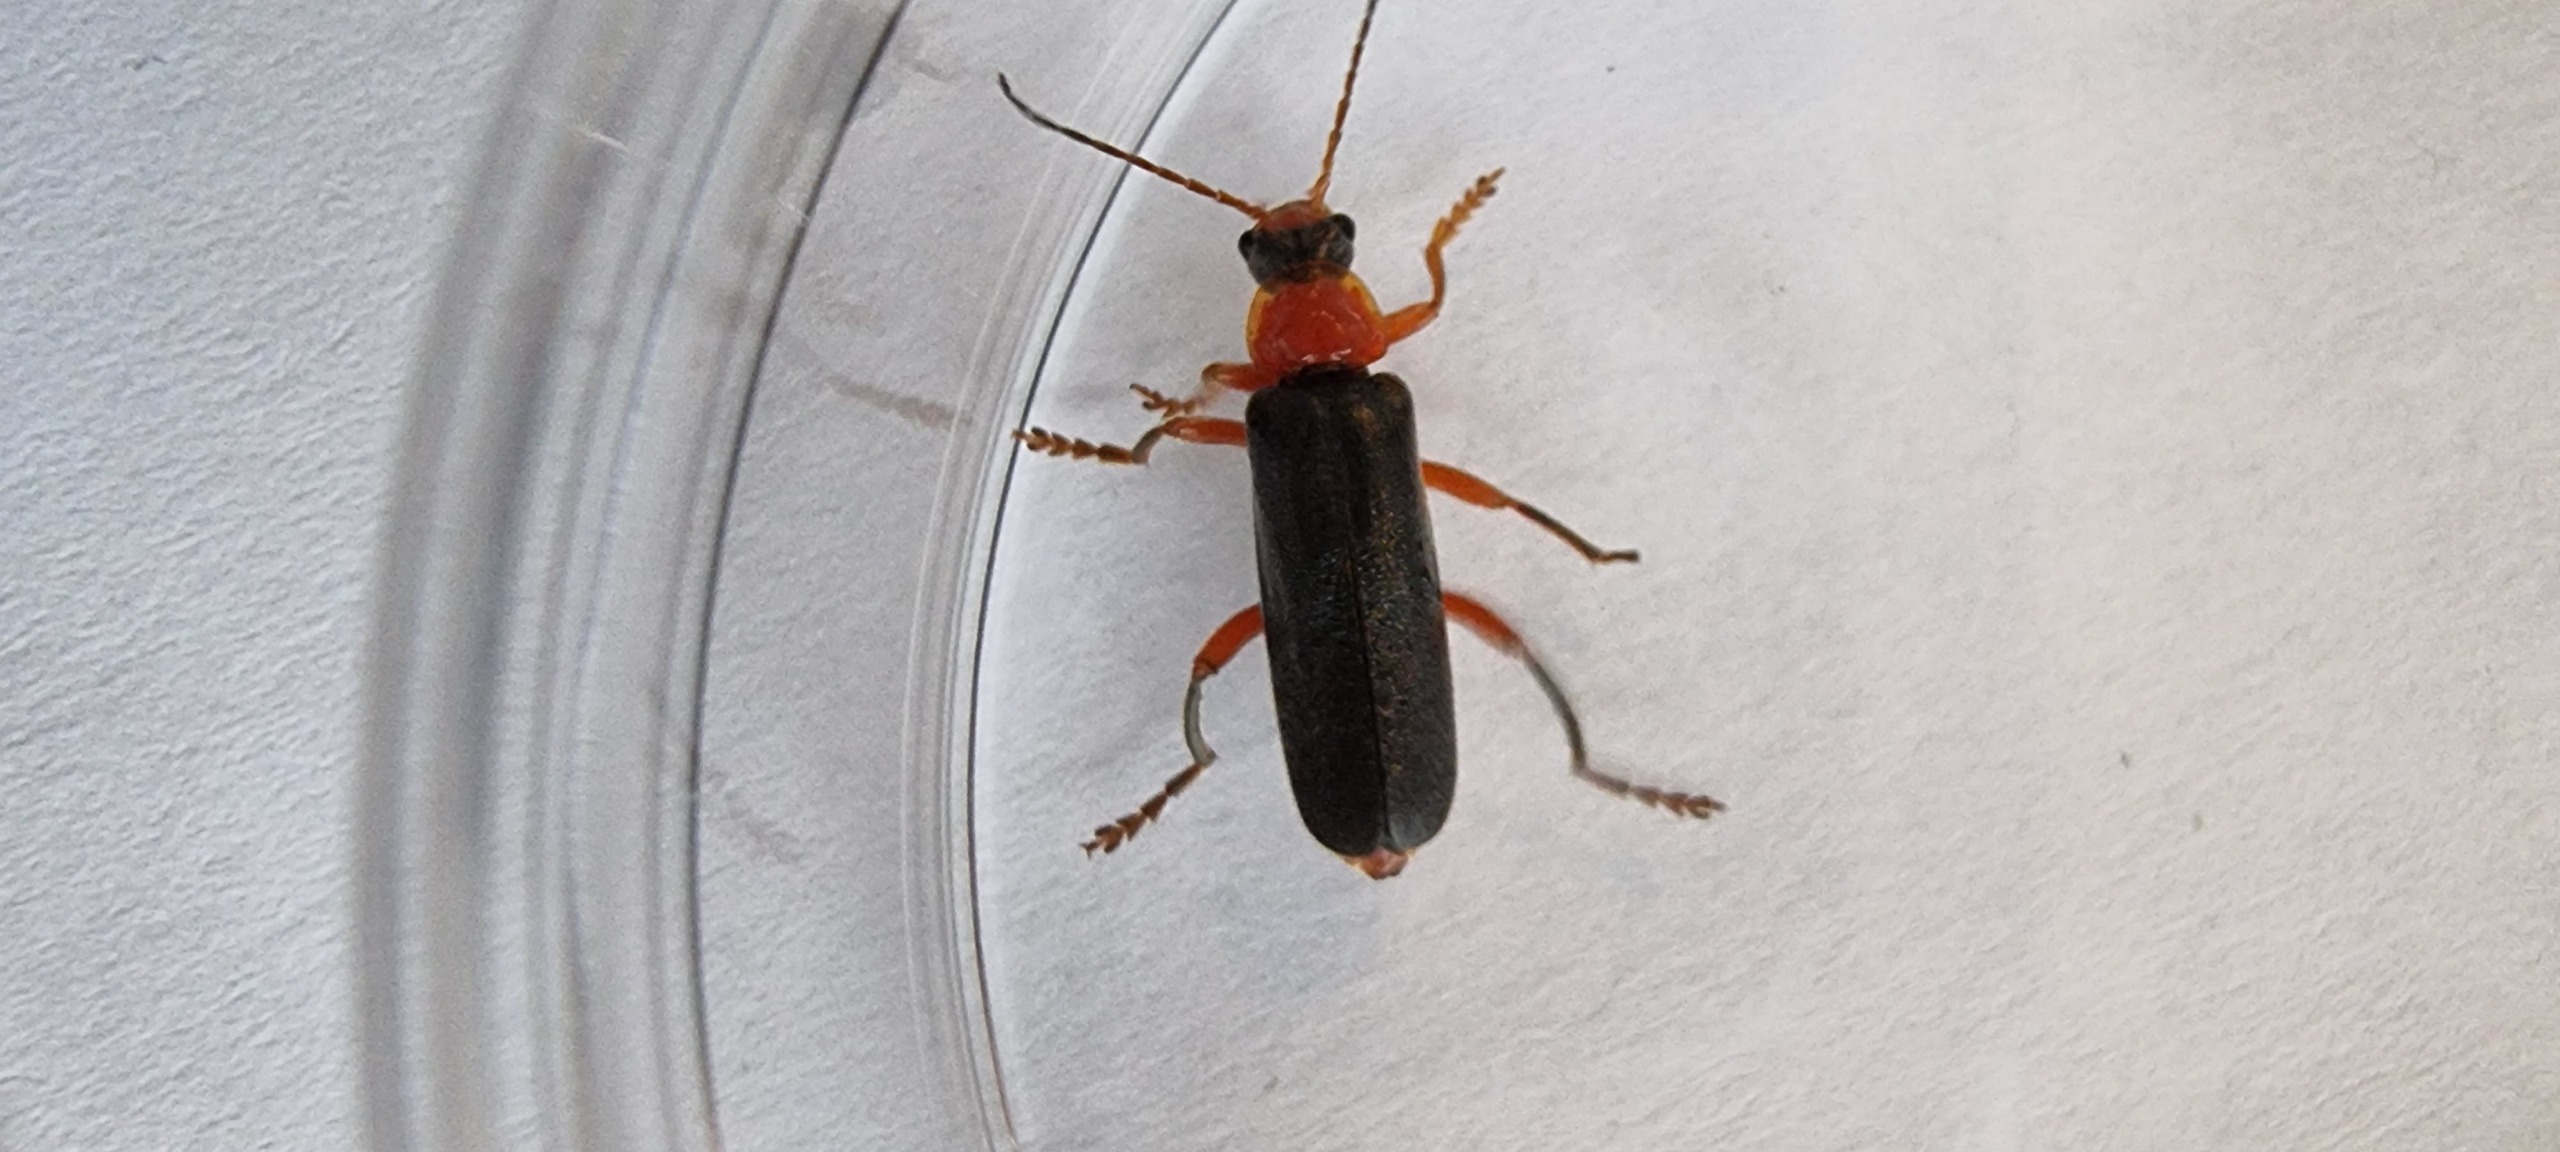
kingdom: Animalia
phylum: Arthropoda
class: Insecta
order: Coleoptera
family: Cantharidae
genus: Cantharis
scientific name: Cantharis pellucida
